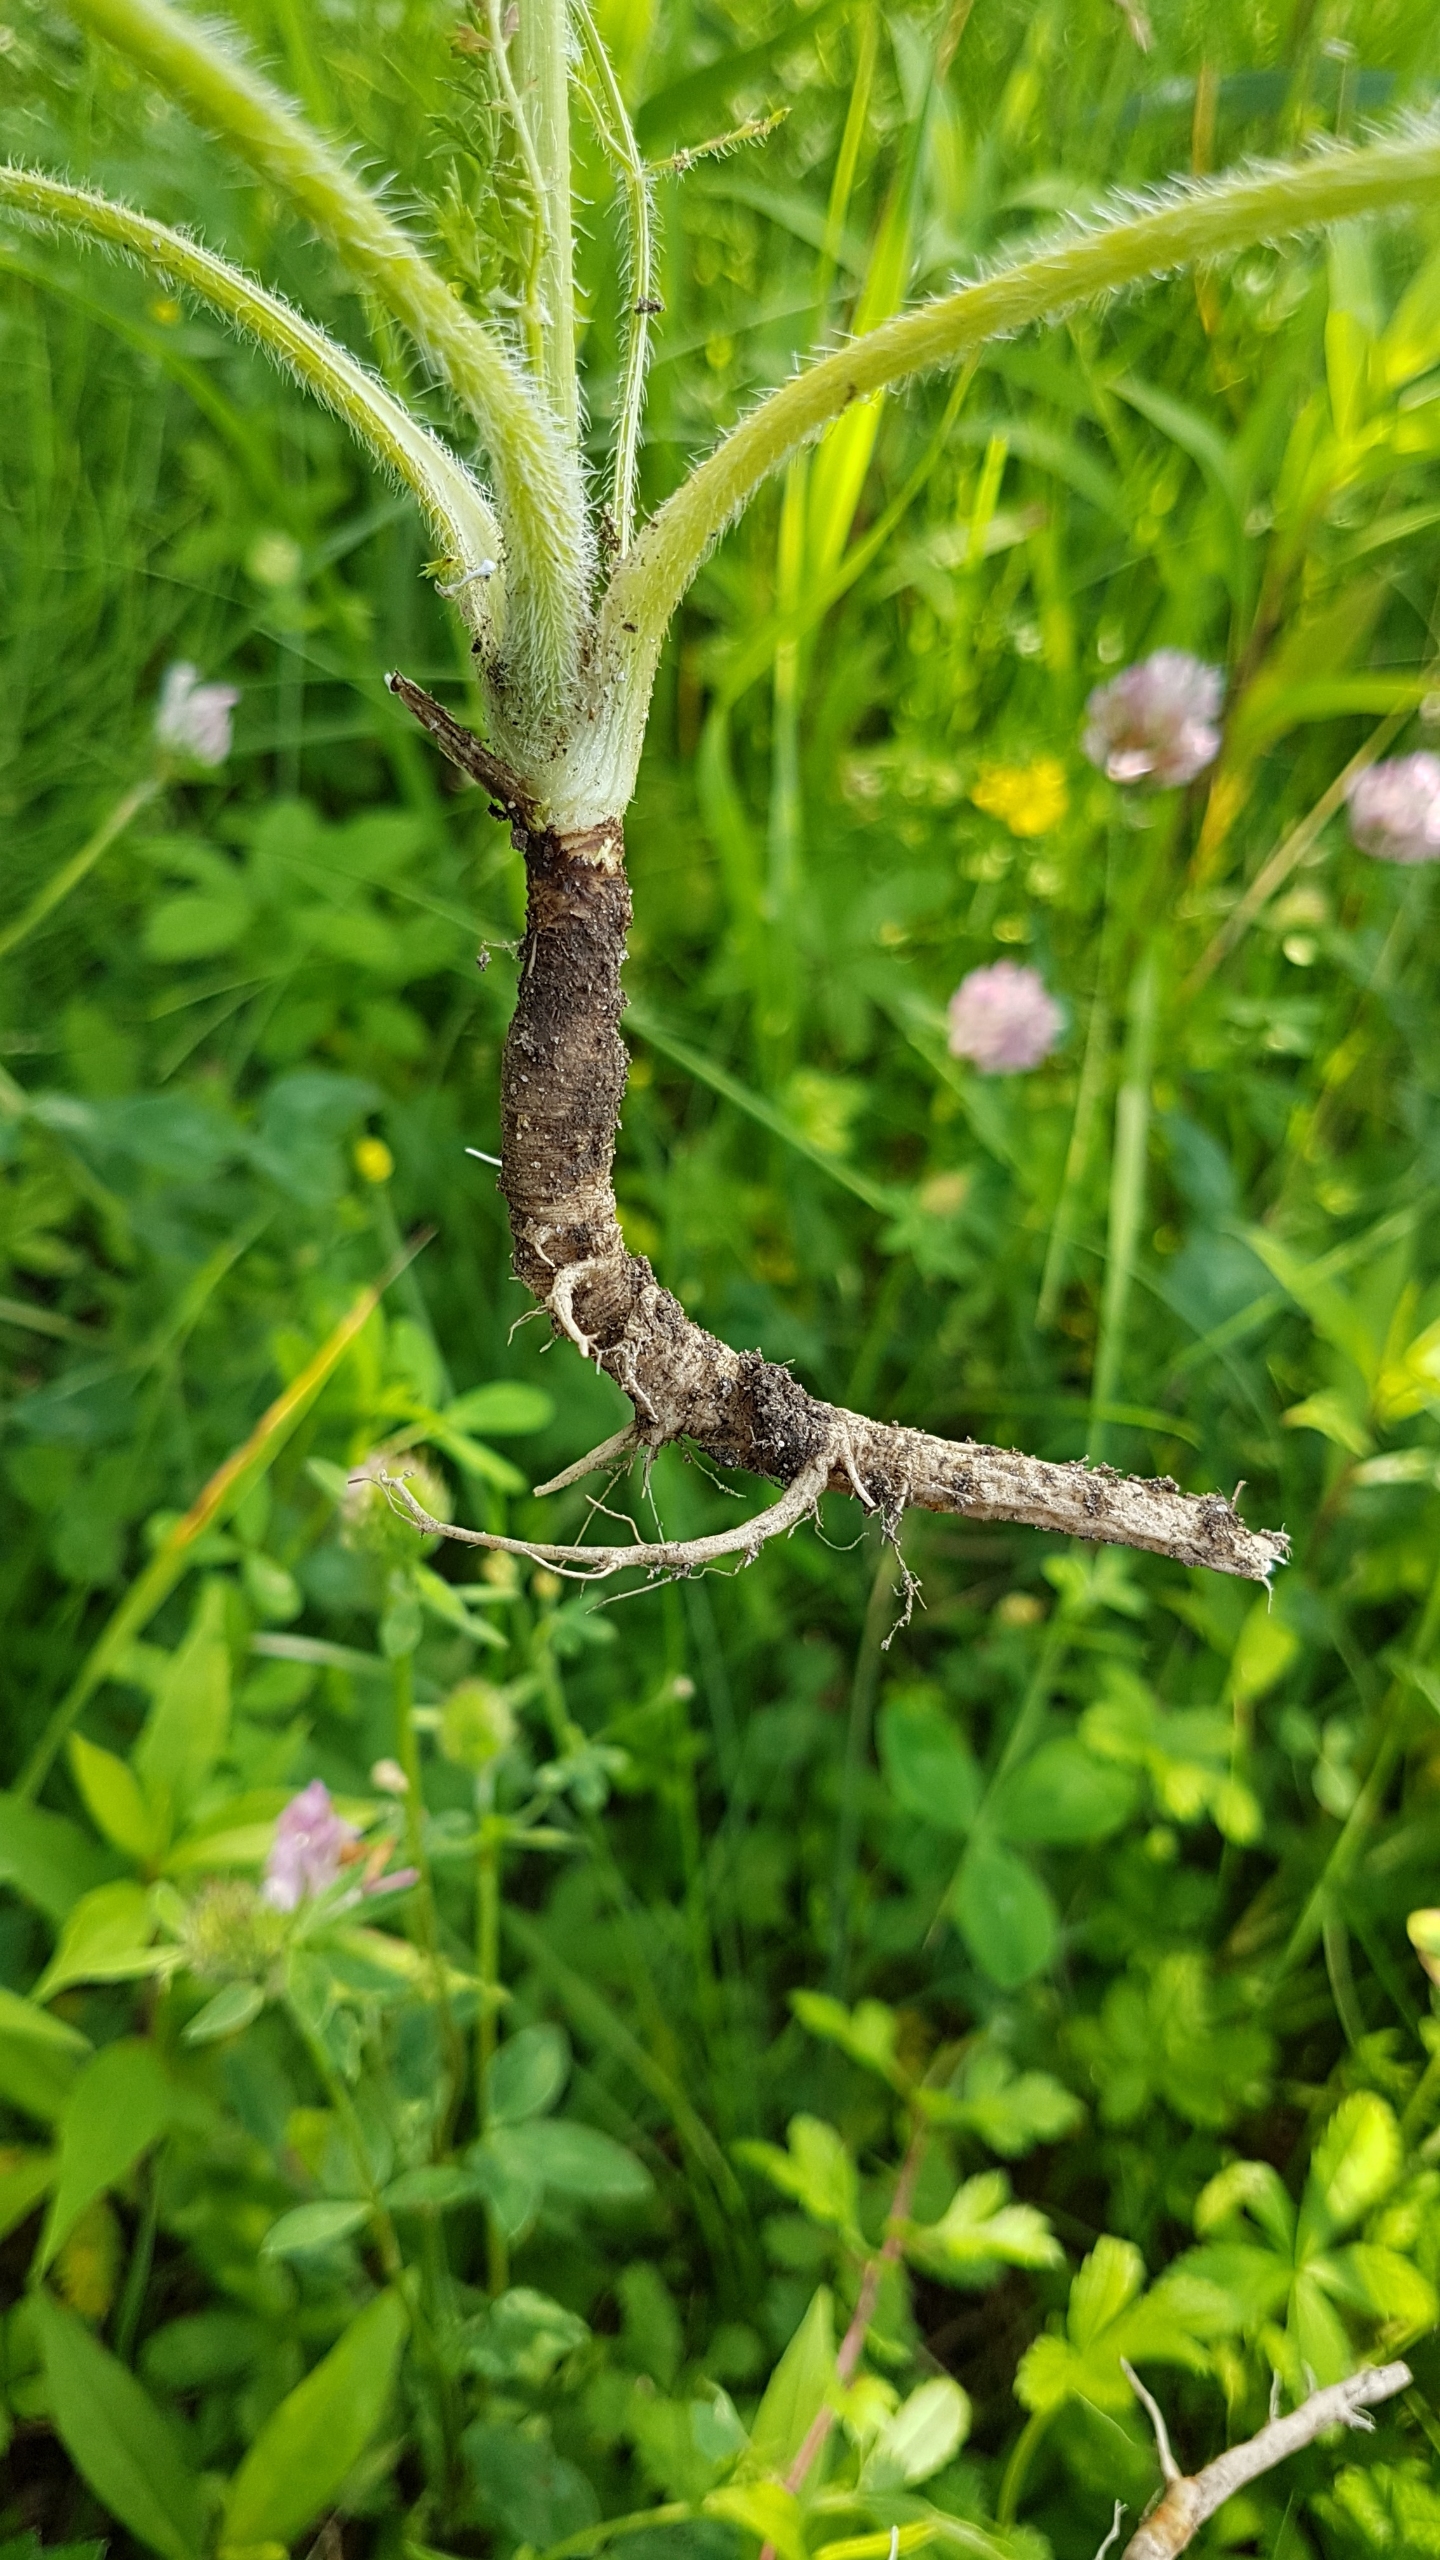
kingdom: Plantae
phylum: Tracheophyta
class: Magnoliopsida
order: Apiales
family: Apiaceae
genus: Daucus
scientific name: Daucus carota
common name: Gulerod
